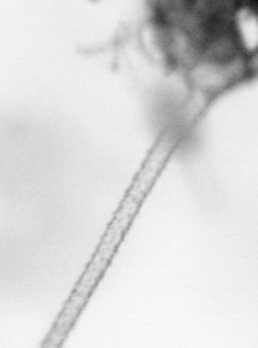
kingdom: Animalia
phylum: Arthropoda
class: Copepoda
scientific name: Copepoda
